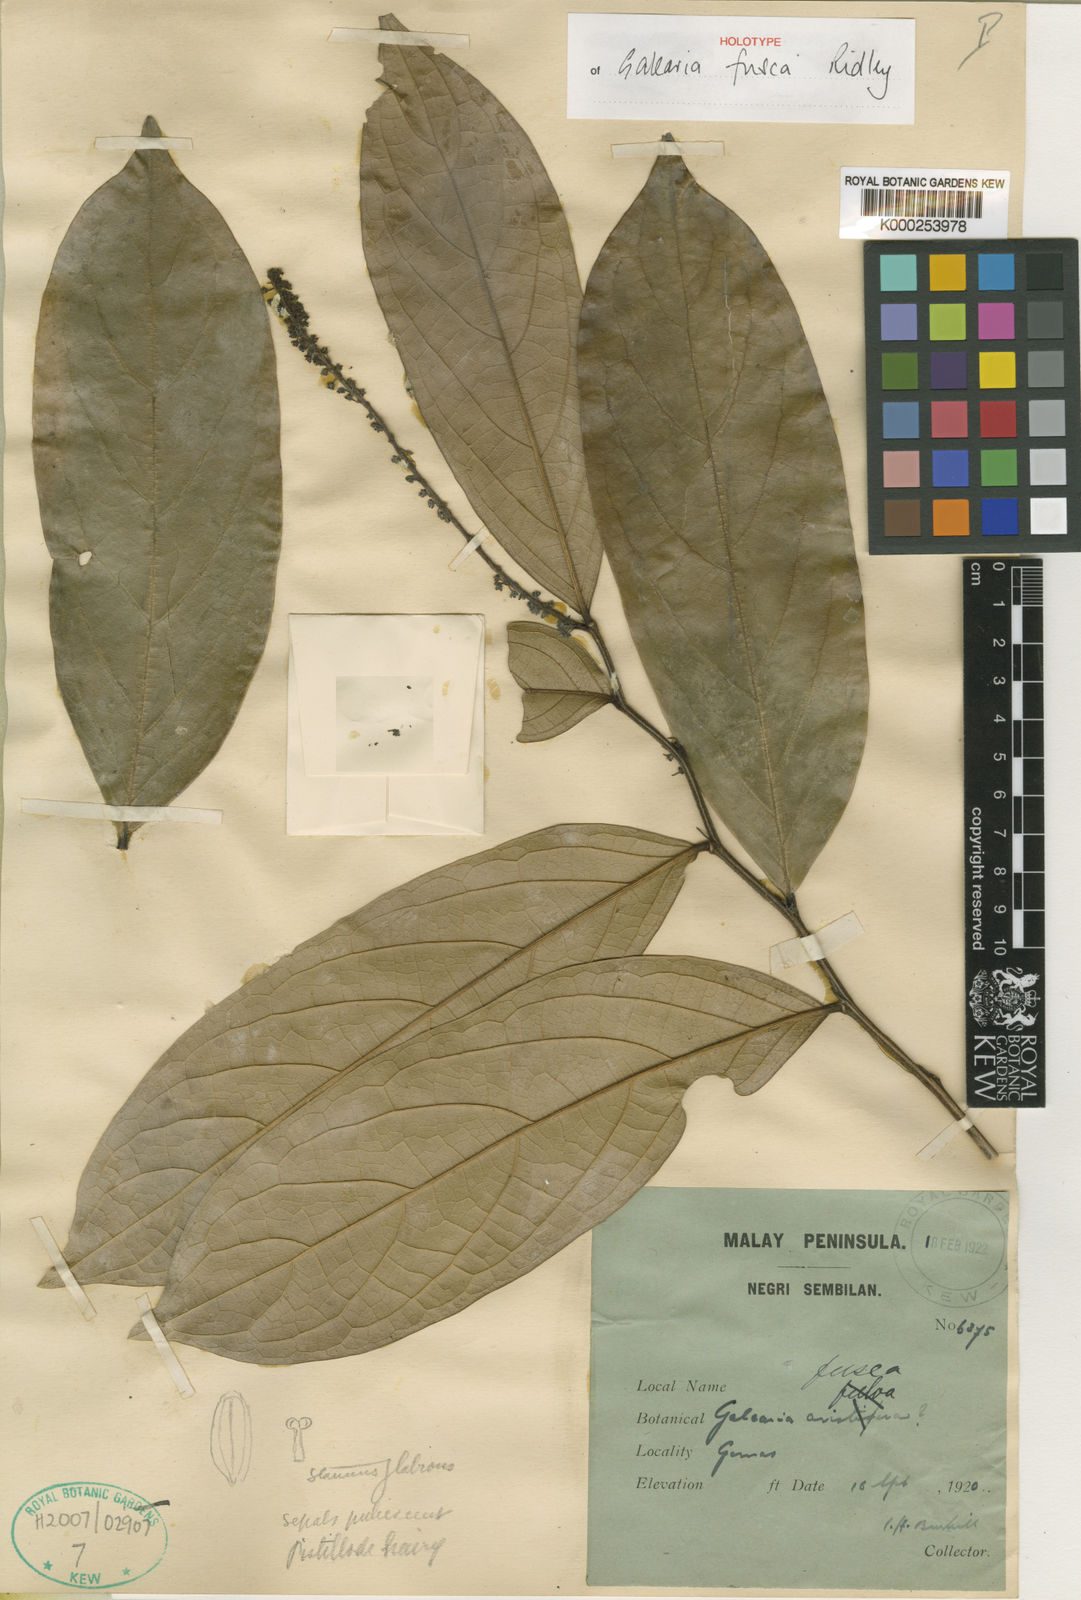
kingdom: Plantae
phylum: Tracheophyta
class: Magnoliopsida
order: Malpighiales
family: Pandaceae
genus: Galearia
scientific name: Galearia fulva
